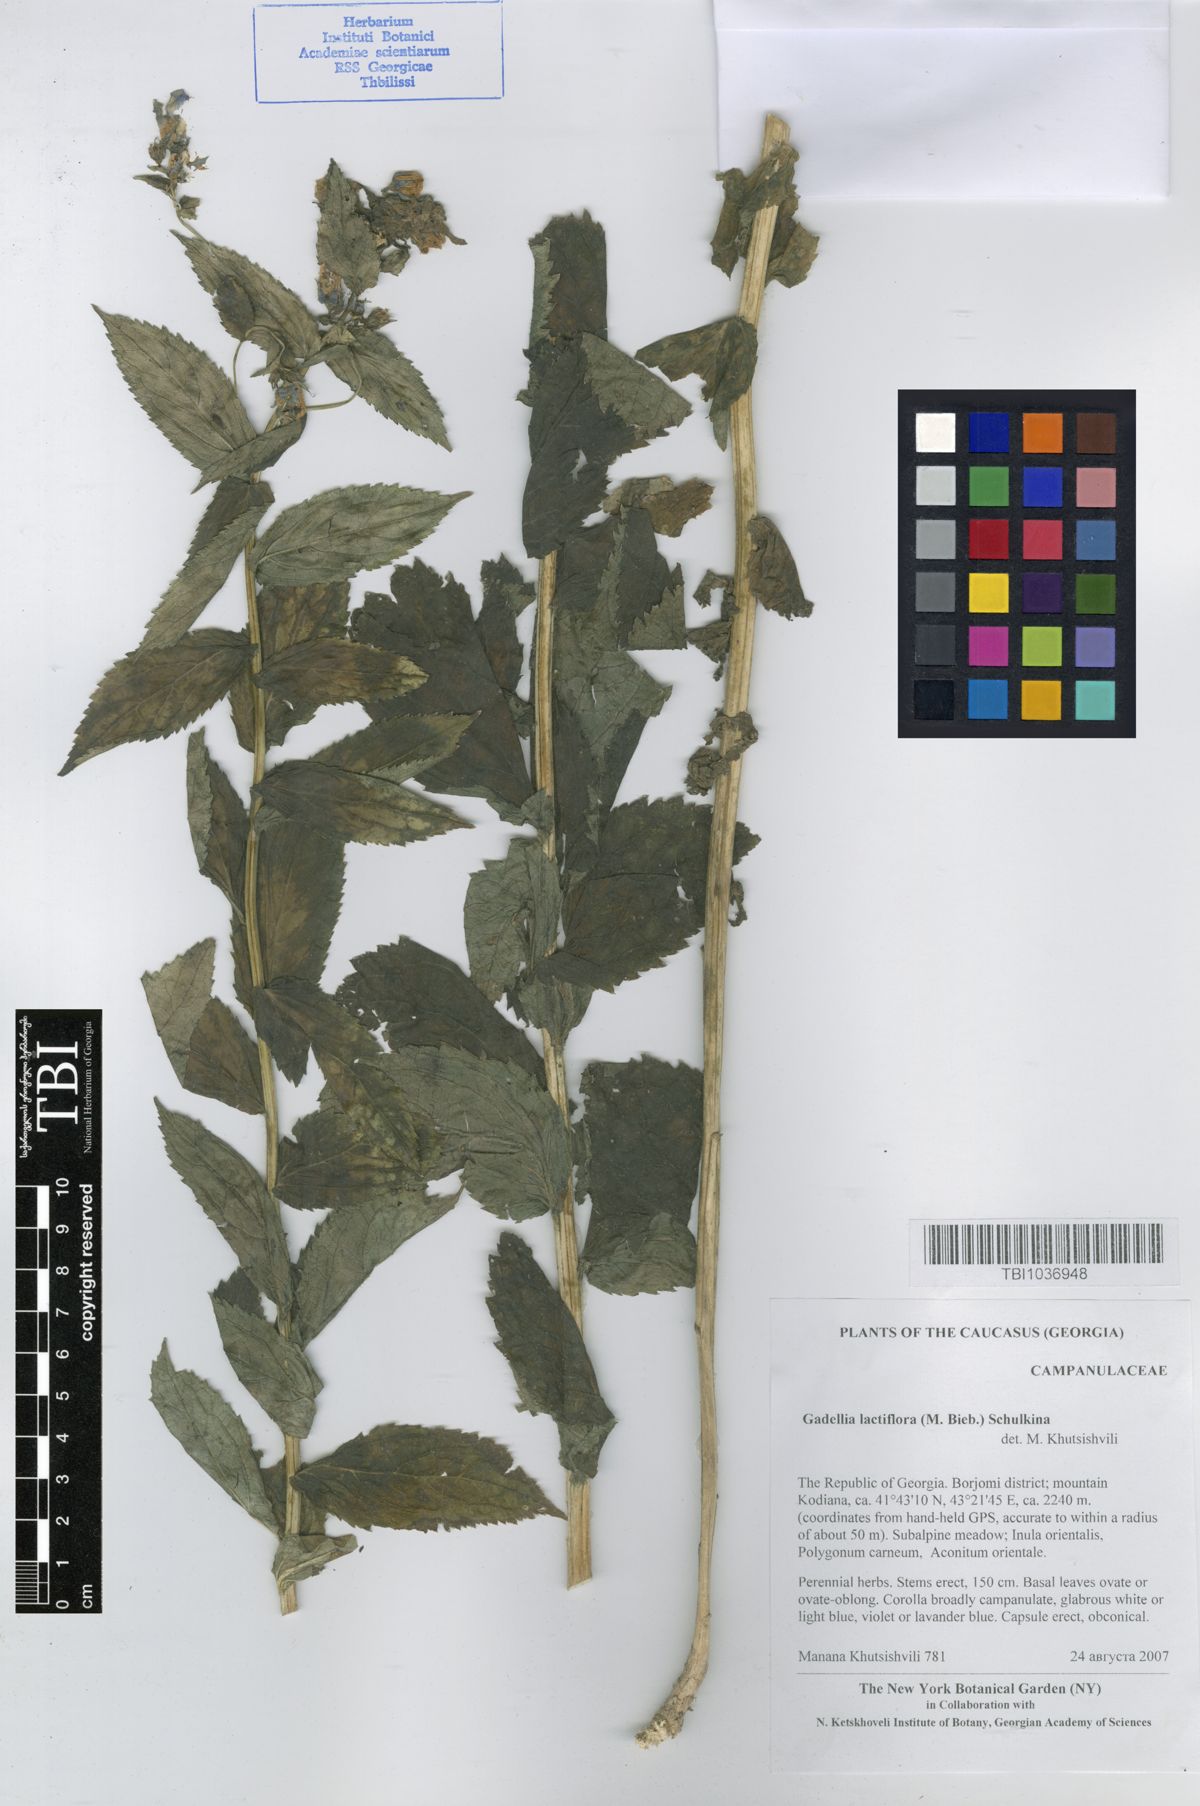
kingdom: Plantae
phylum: Tracheophyta
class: Magnoliopsida
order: Asterales
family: Campanulaceae
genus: Campanula
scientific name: Campanula lactiflora
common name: Milky bellflower
